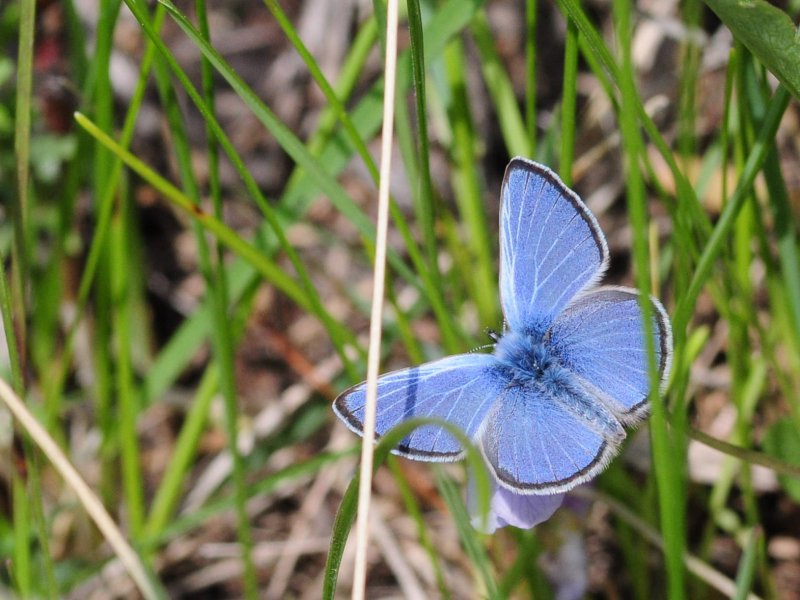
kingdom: Animalia
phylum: Arthropoda
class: Insecta
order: Lepidoptera
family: Lycaenidae
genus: Glaucopsyche
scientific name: Glaucopsyche lygdamus
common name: Silvery Blue
